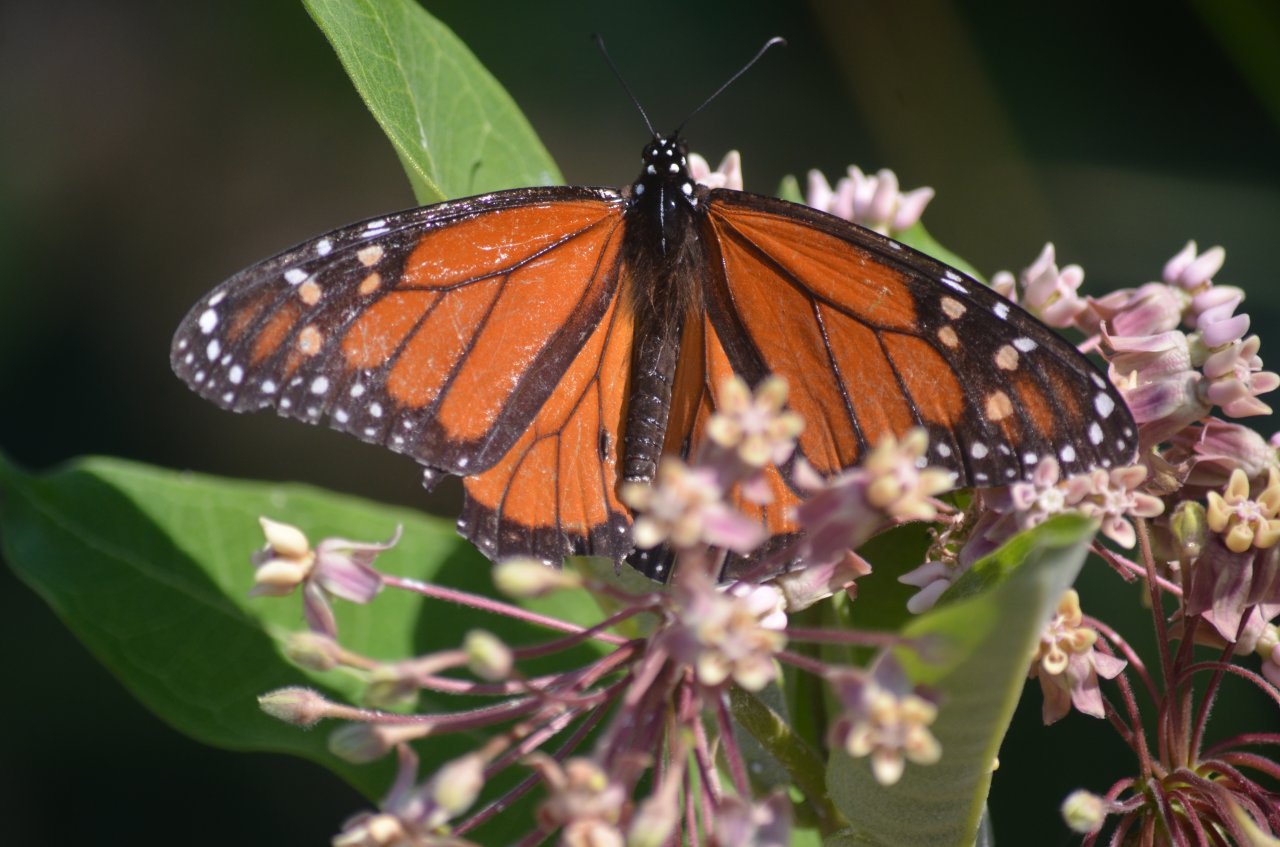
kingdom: Animalia
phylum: Arthropoda
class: Insecta
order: Lepidoptera
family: Nymphalidae
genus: Danaus
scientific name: Danaus plexippus
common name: Monarch
